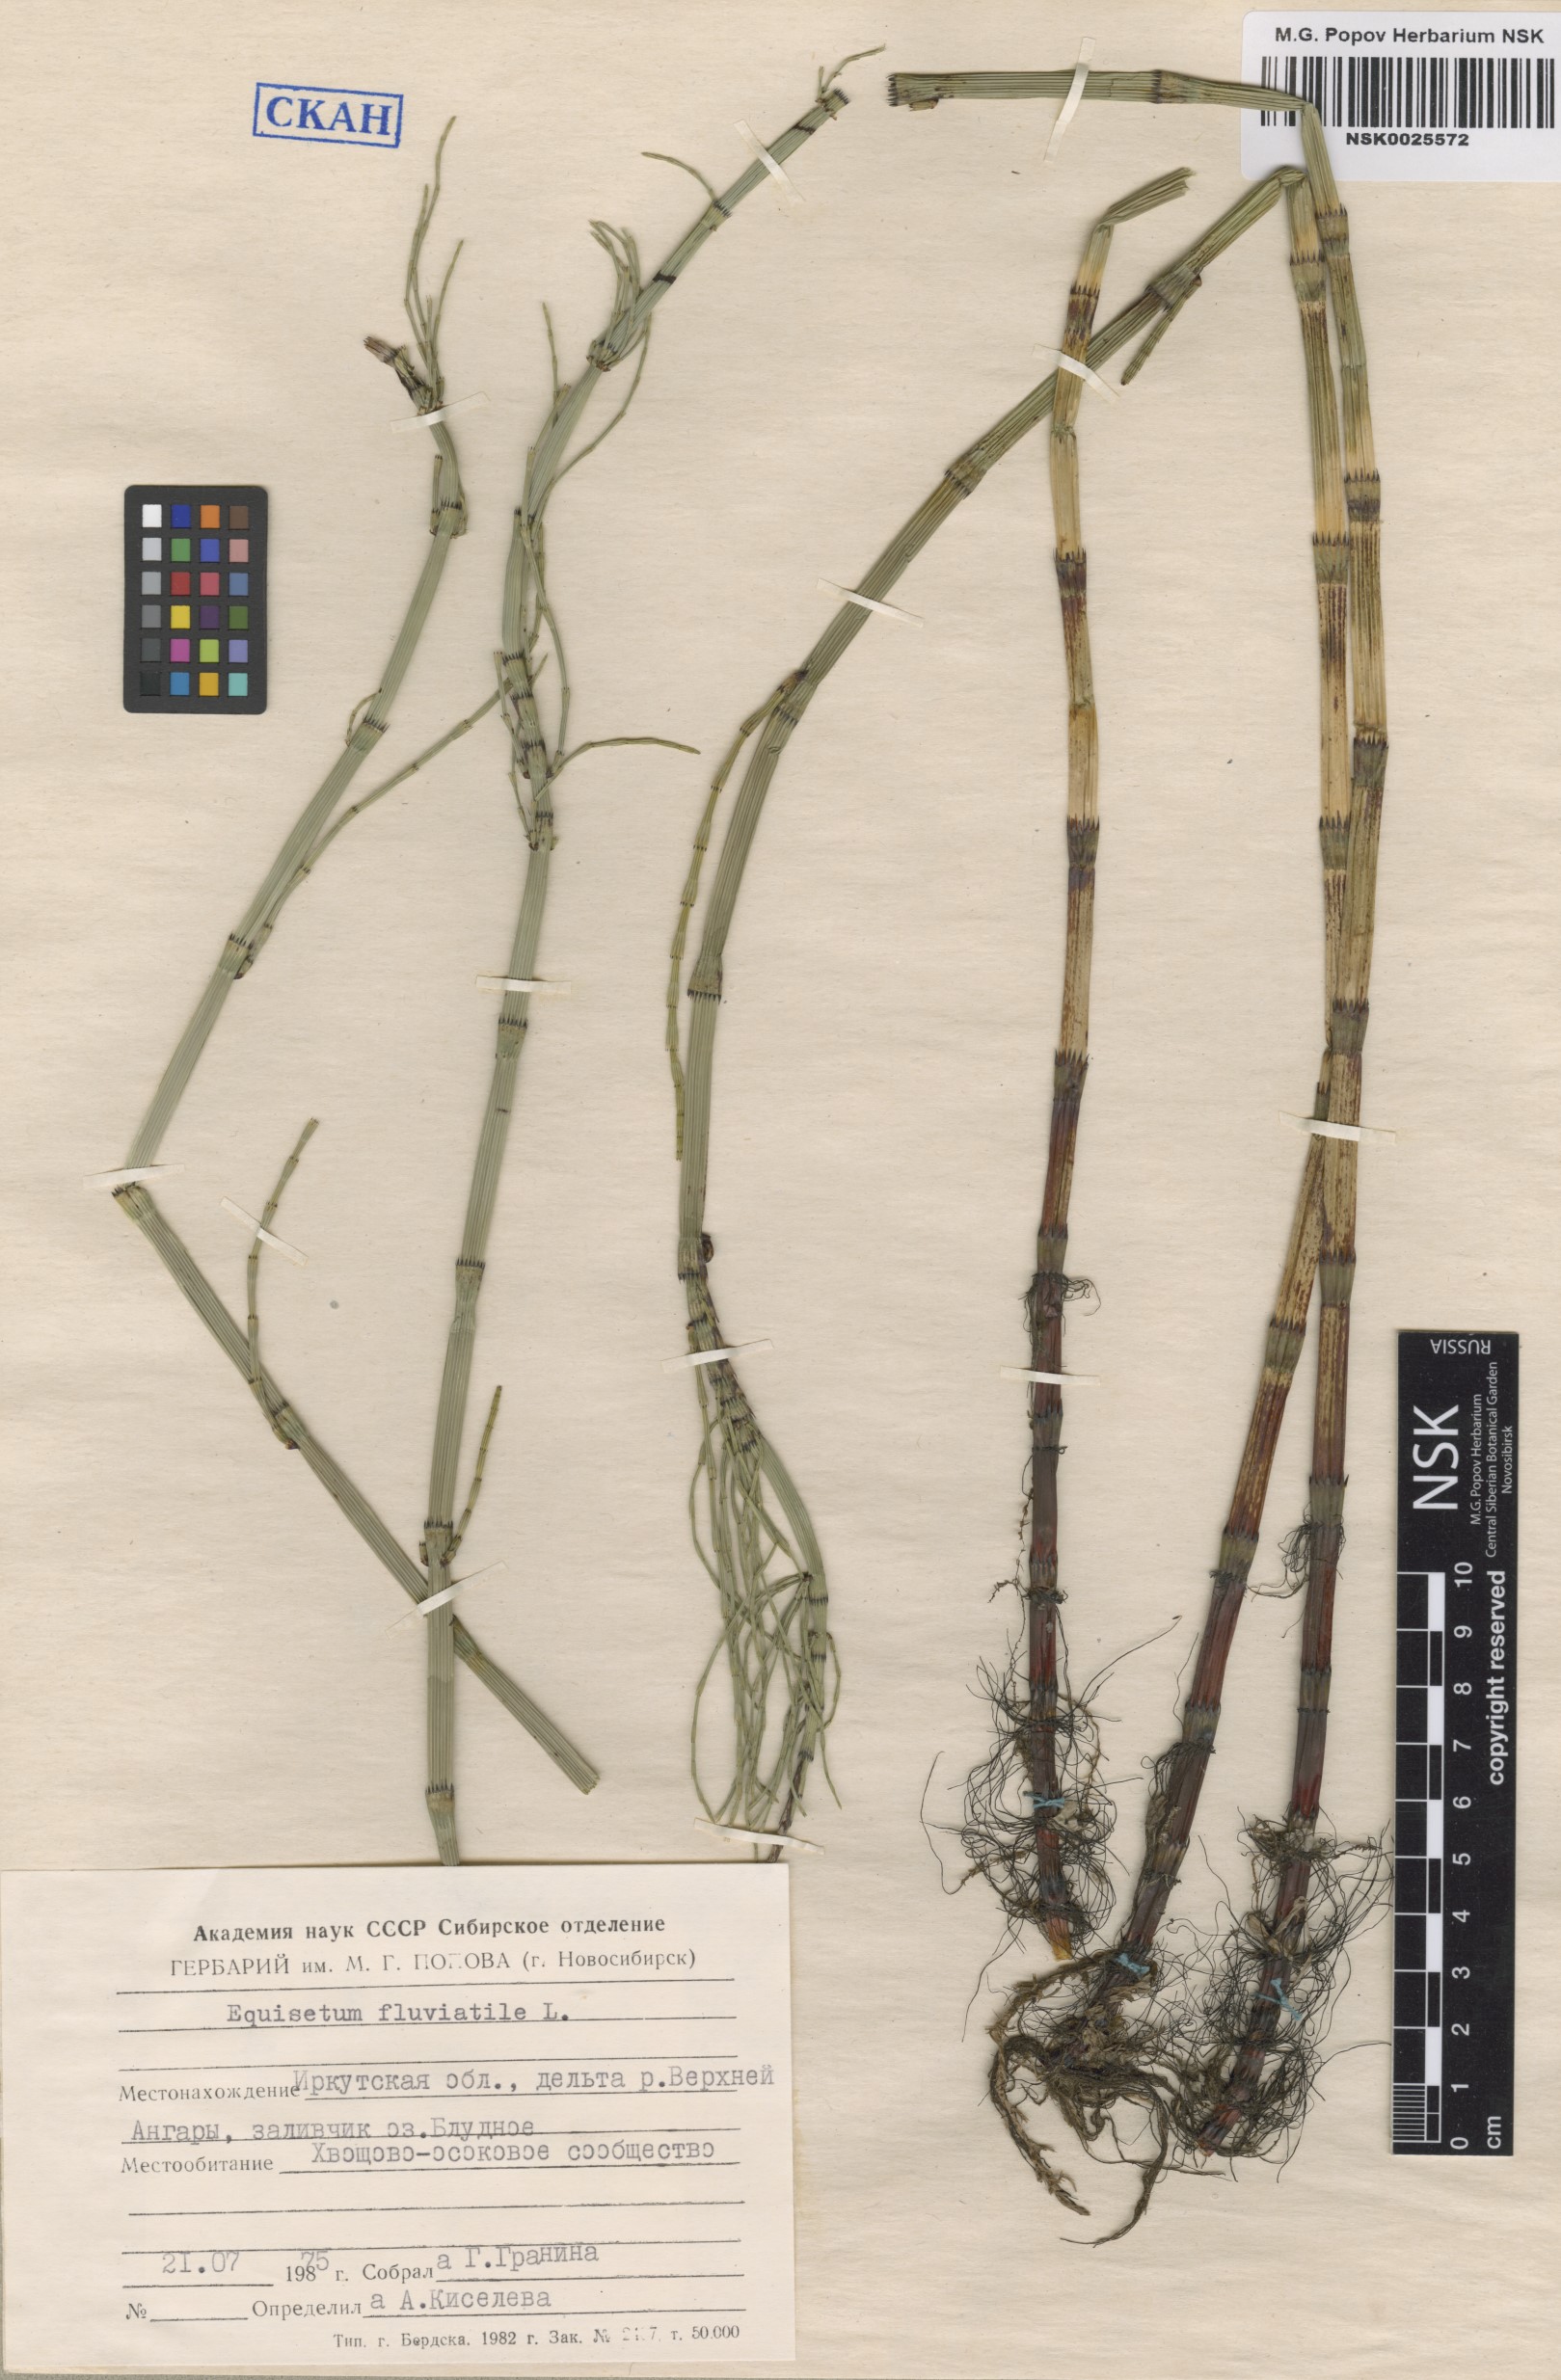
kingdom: Plantae
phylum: Tracheophyta
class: Polypodiopsida
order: Equisetales
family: Equisetaceae
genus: Equisetum
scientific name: Equisetum fluviatile
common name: Water horsetail
